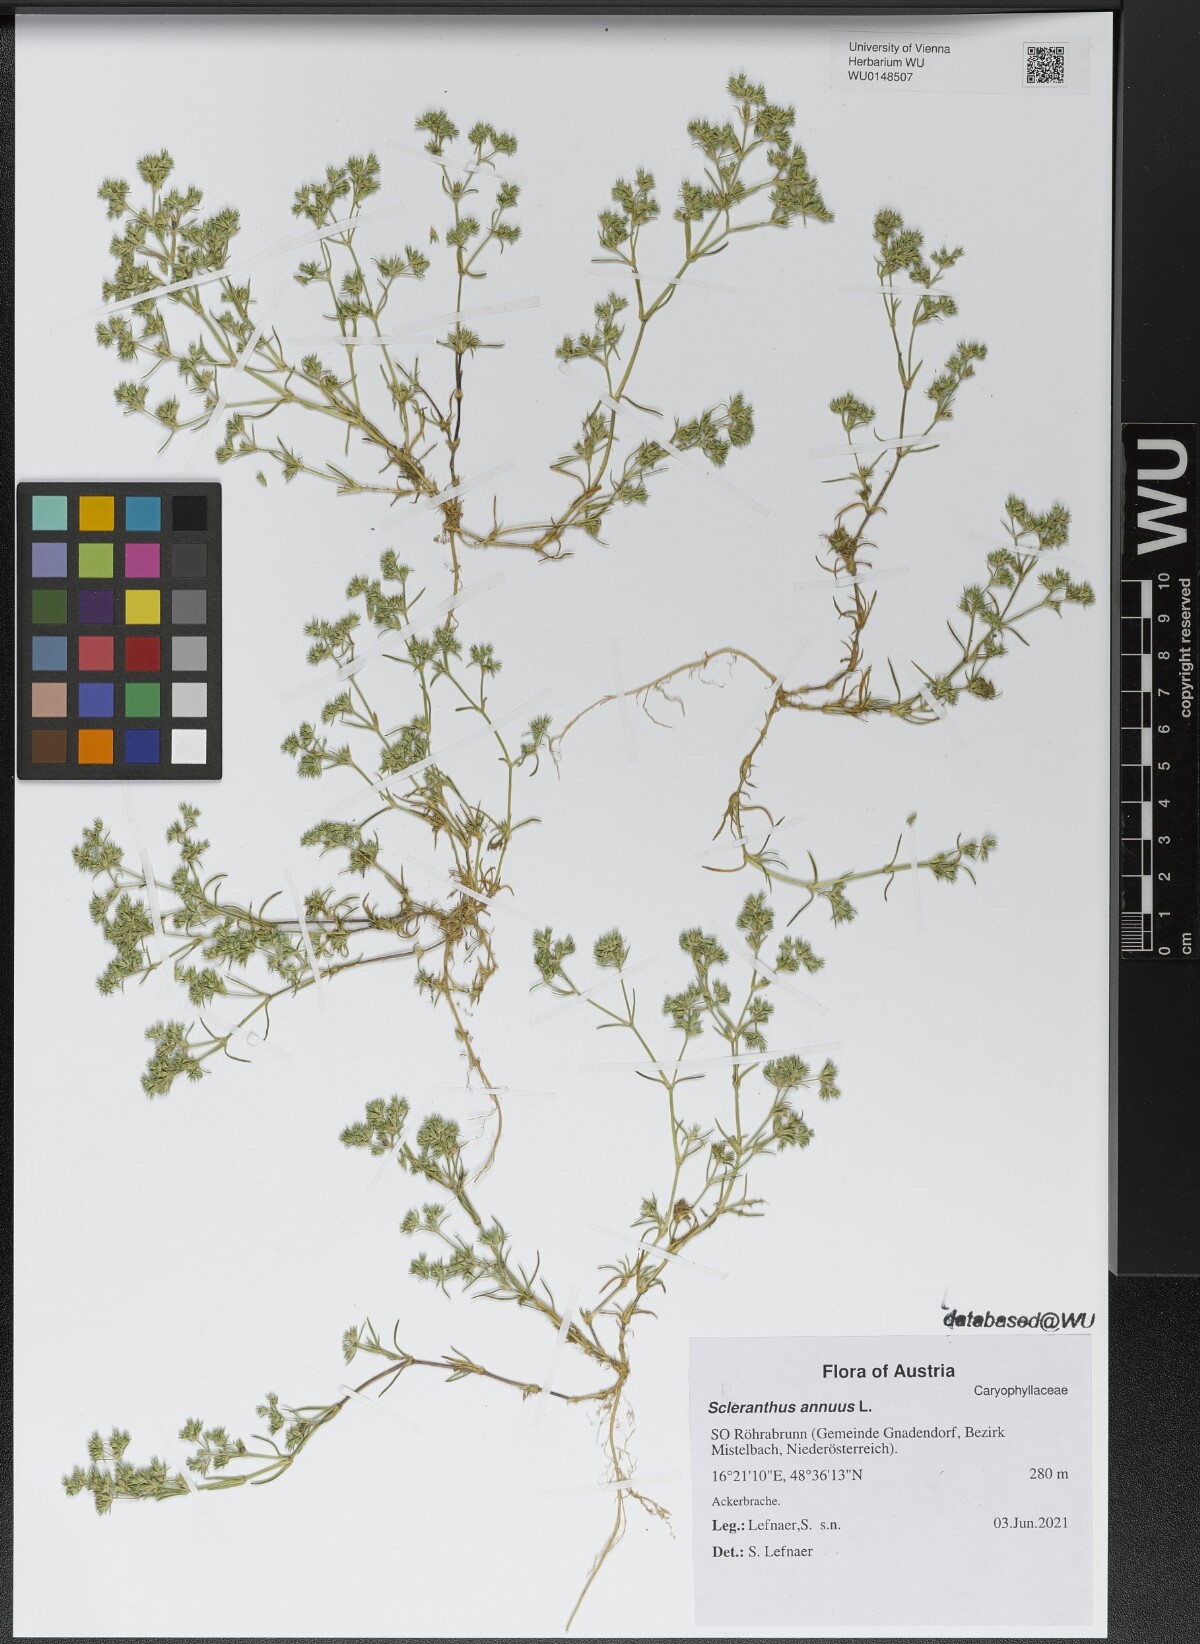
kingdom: Plantae
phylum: Tracheophyta
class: Magnoliopsida
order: Caryophyllales
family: Caryophyllaceae
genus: Scleranthus
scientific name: Scleranthus annuus
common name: Annual knawel
